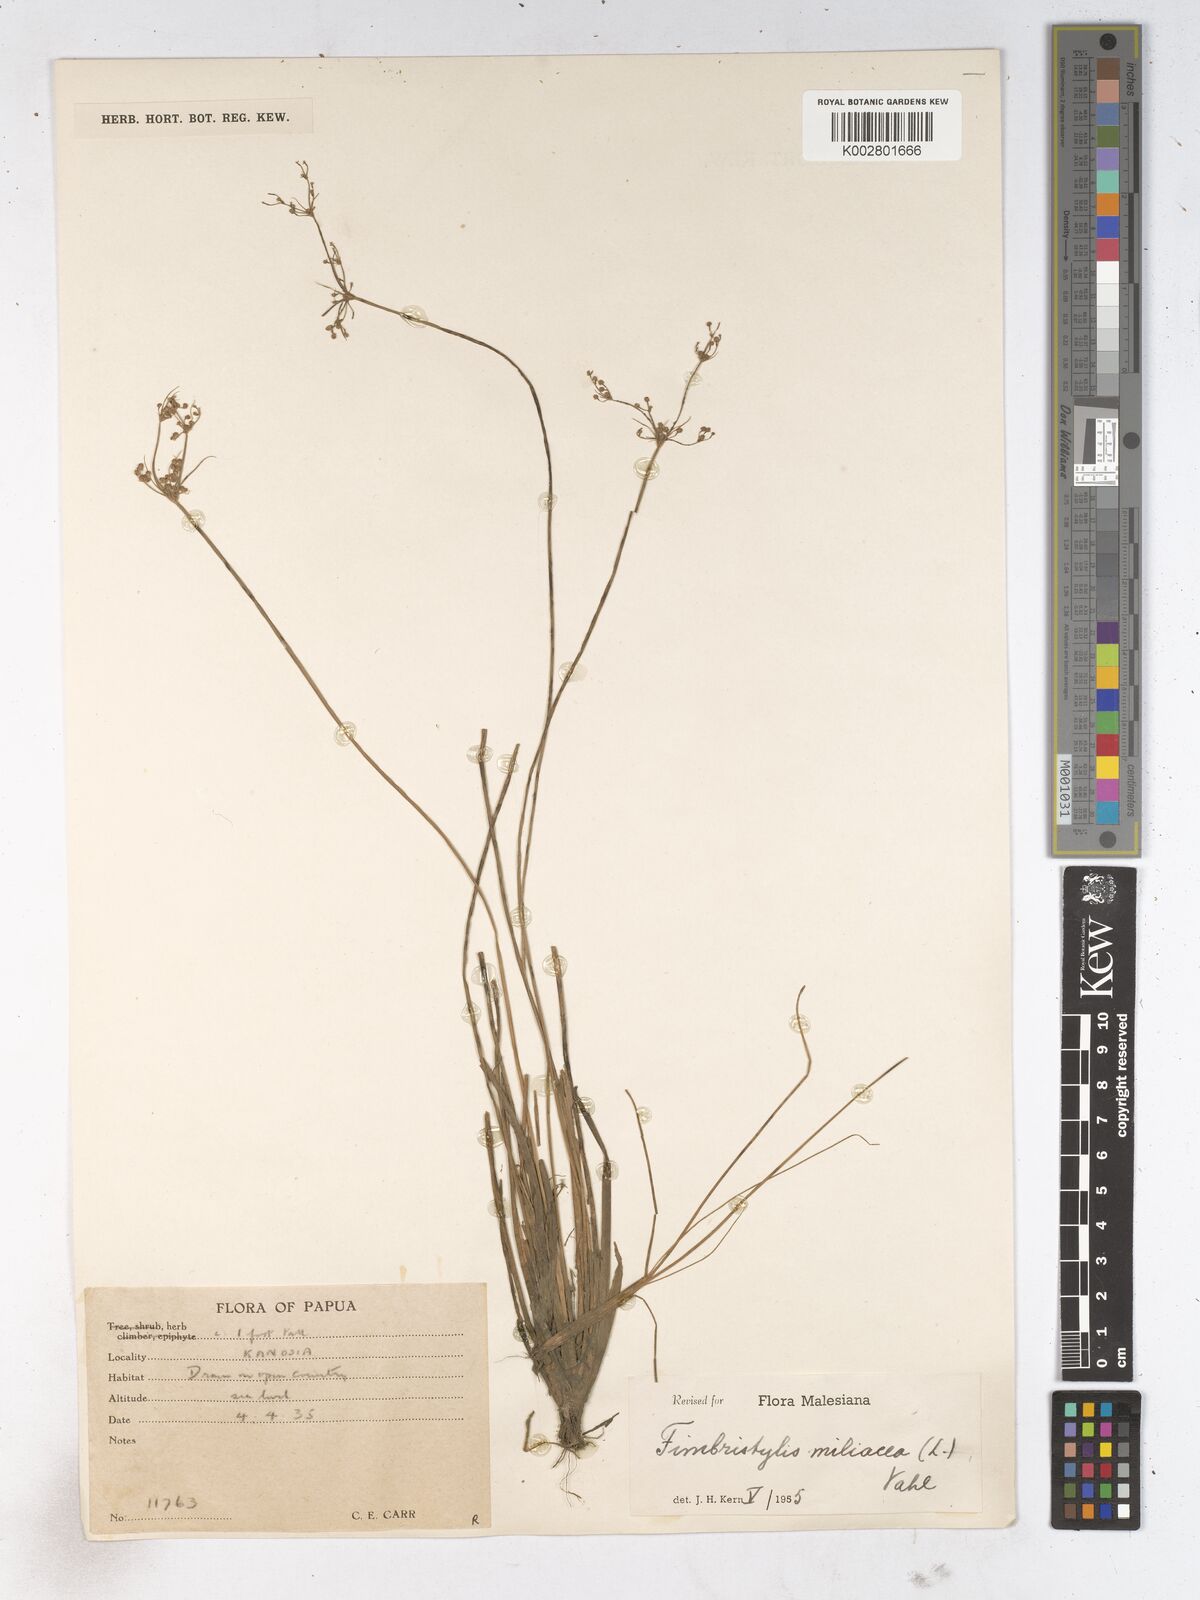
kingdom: Plantae
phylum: Tracheophyta
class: Liliopsida
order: Poales
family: Cyperaceae
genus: Fimbristylis
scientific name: Fimbristylis littoralis
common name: Fimbry
